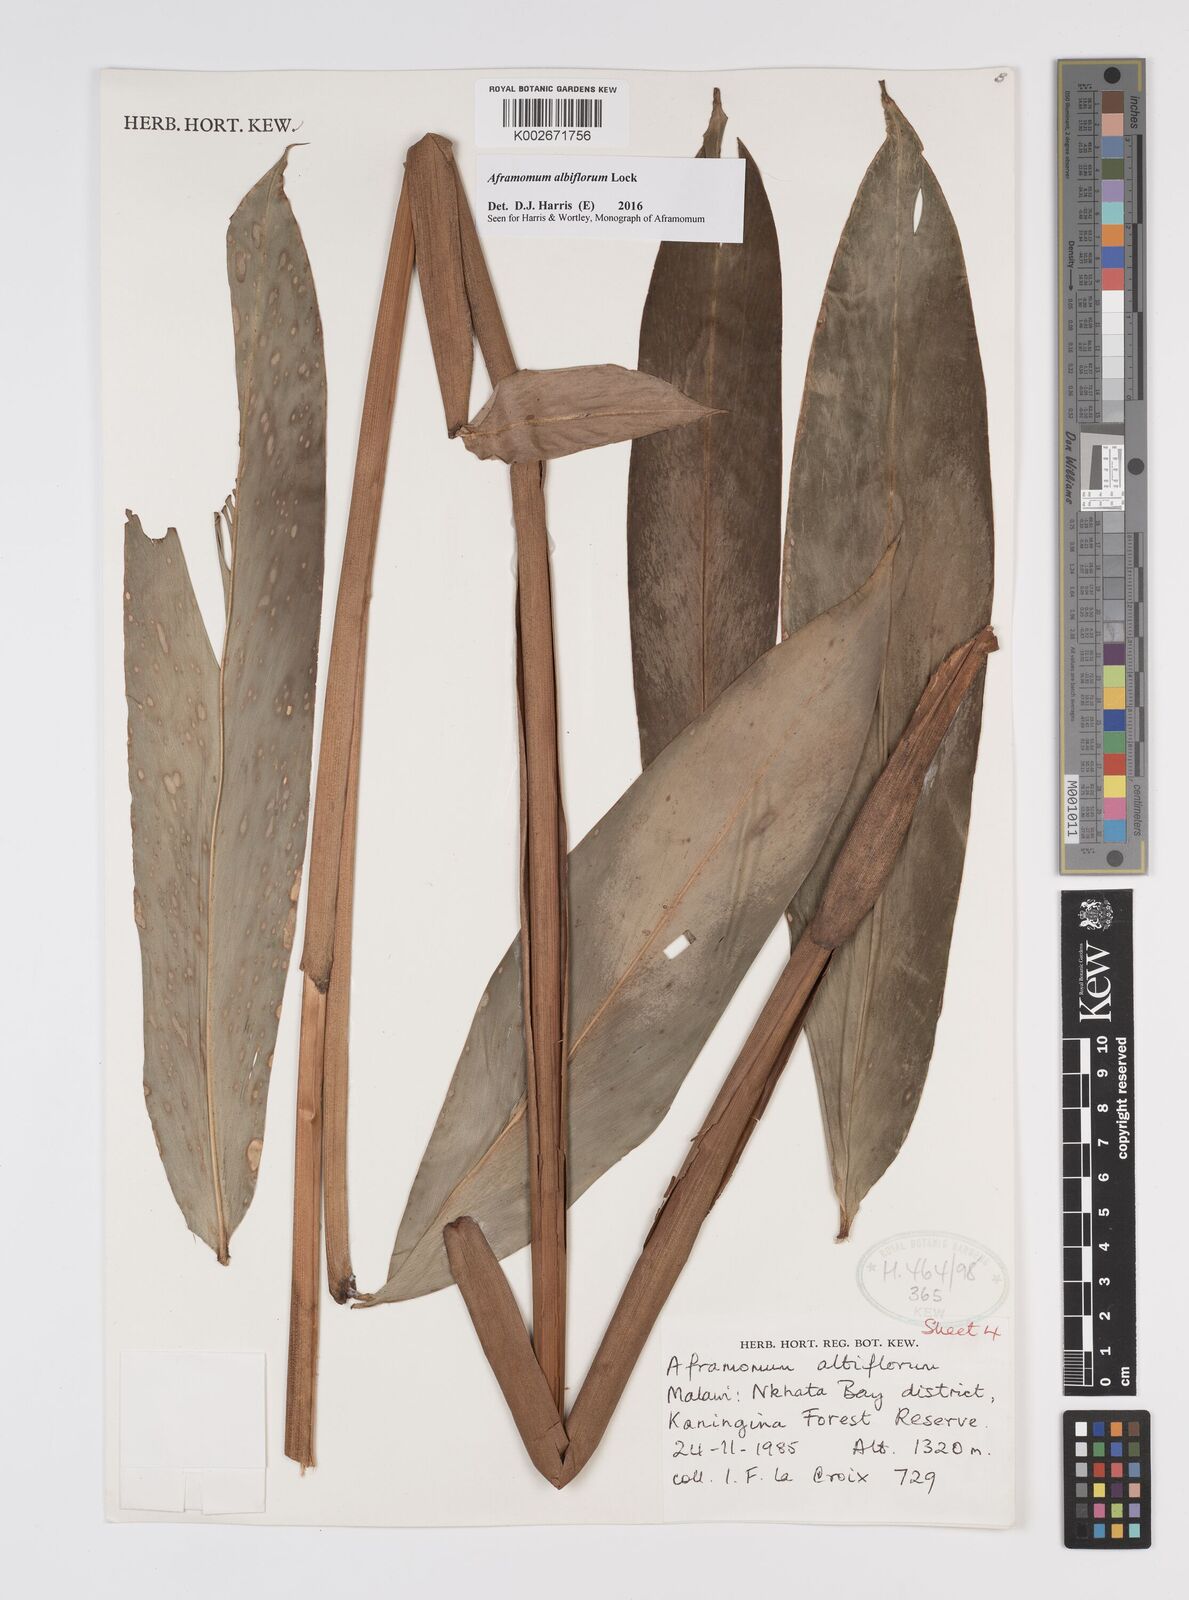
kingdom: Plantae
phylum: Tracheophyta
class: Liliopsida
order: Zingiberales
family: Zingiberaceae
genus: Aframomum
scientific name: Aframomum albiflorum
